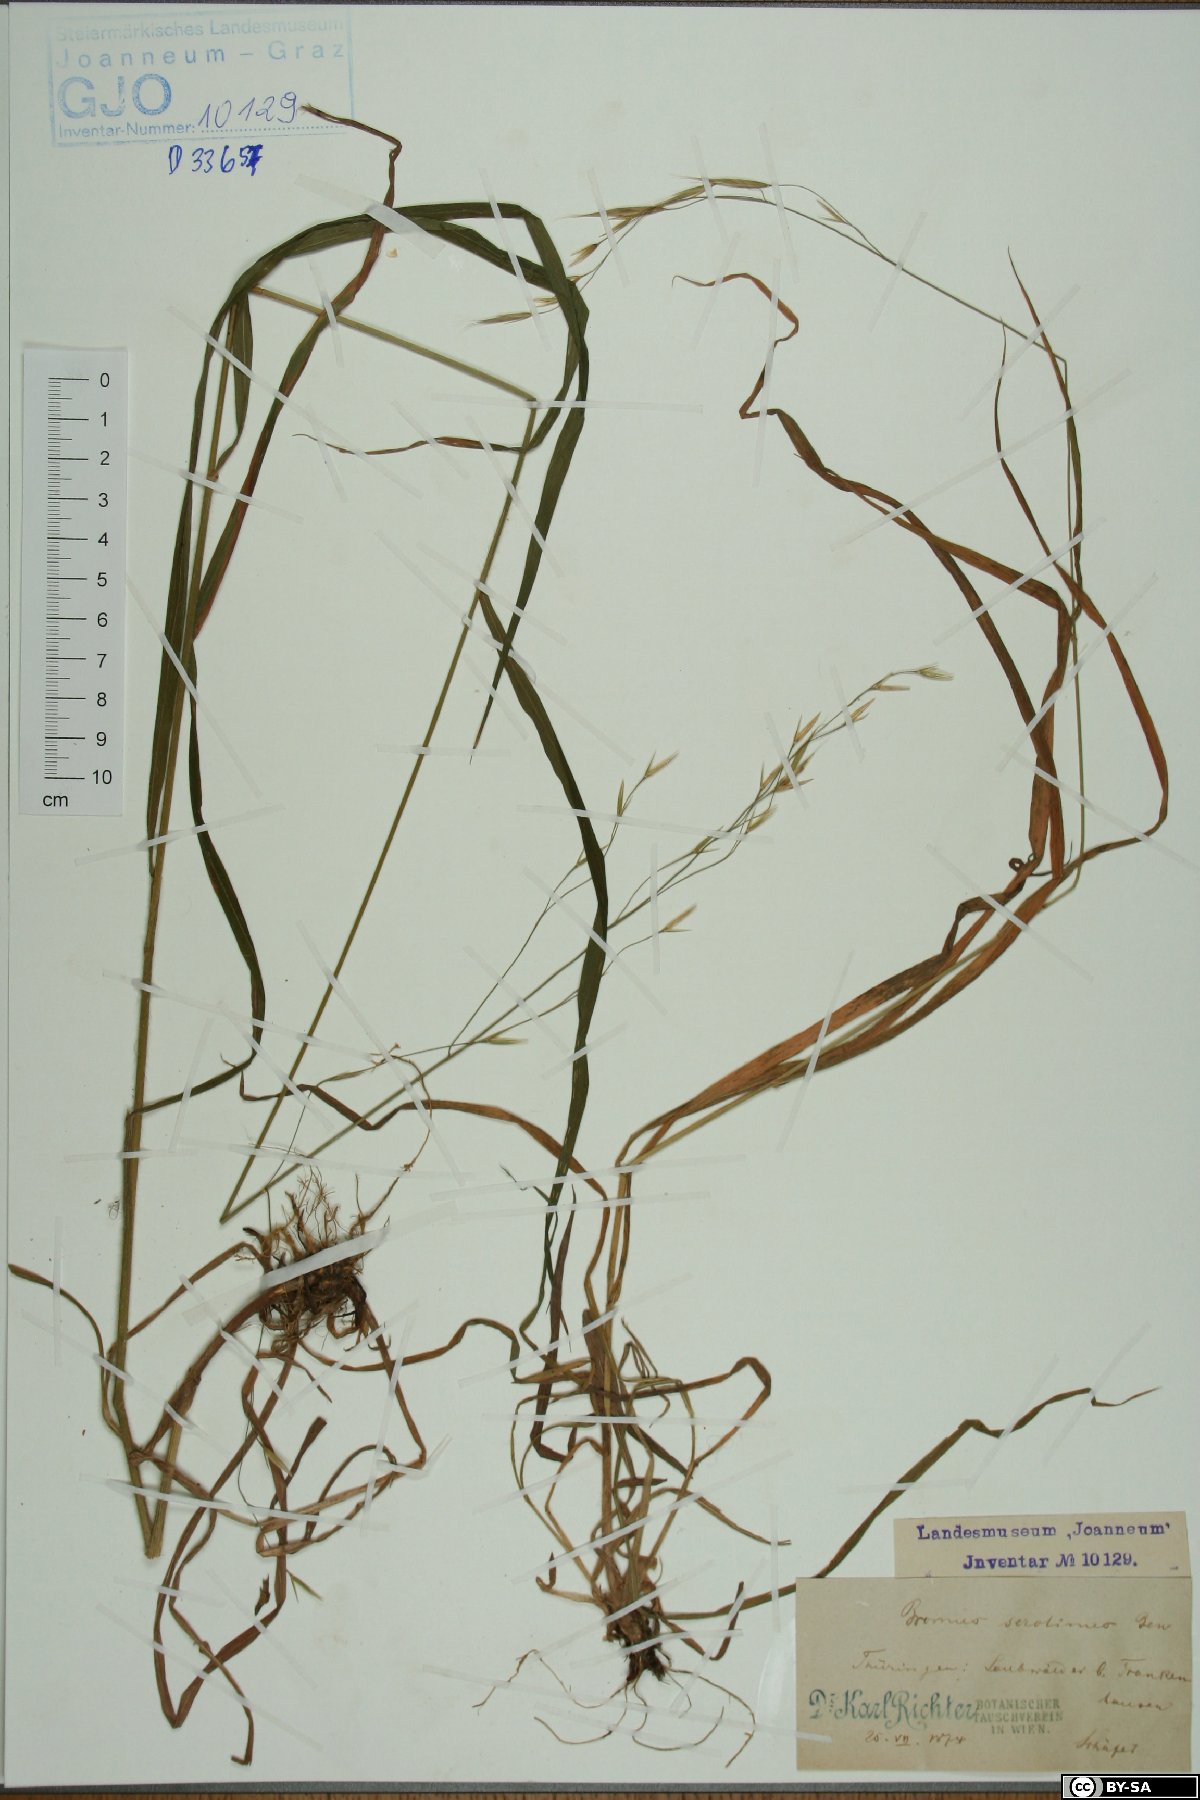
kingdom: Plantae
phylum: Tracheophyta
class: Liliopsida
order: Poales
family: Poaceae
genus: Bromus
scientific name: Bromus ramosus
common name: Hairy brome
